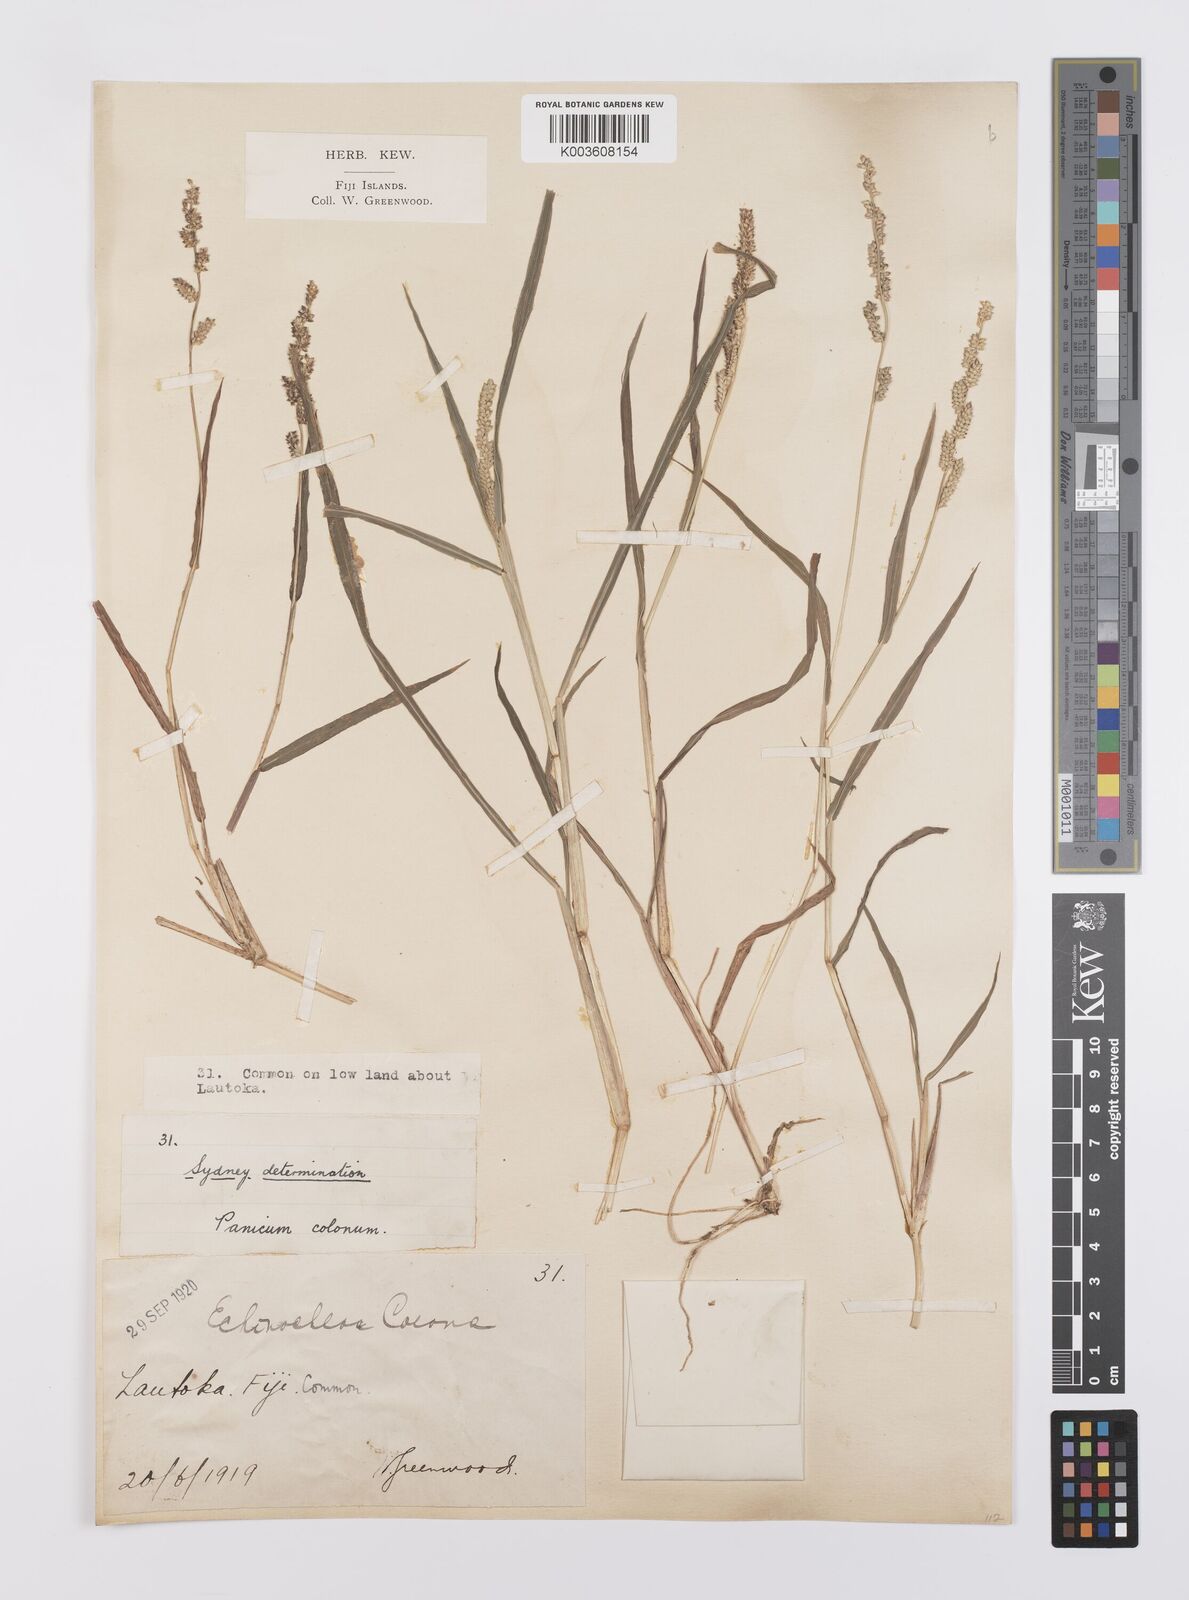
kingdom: Plantae
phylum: Tracheophyta
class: Liliopsida
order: Poales
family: Poaceae
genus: Echinochloa
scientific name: Echinochloa colonum
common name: Jungle rice
